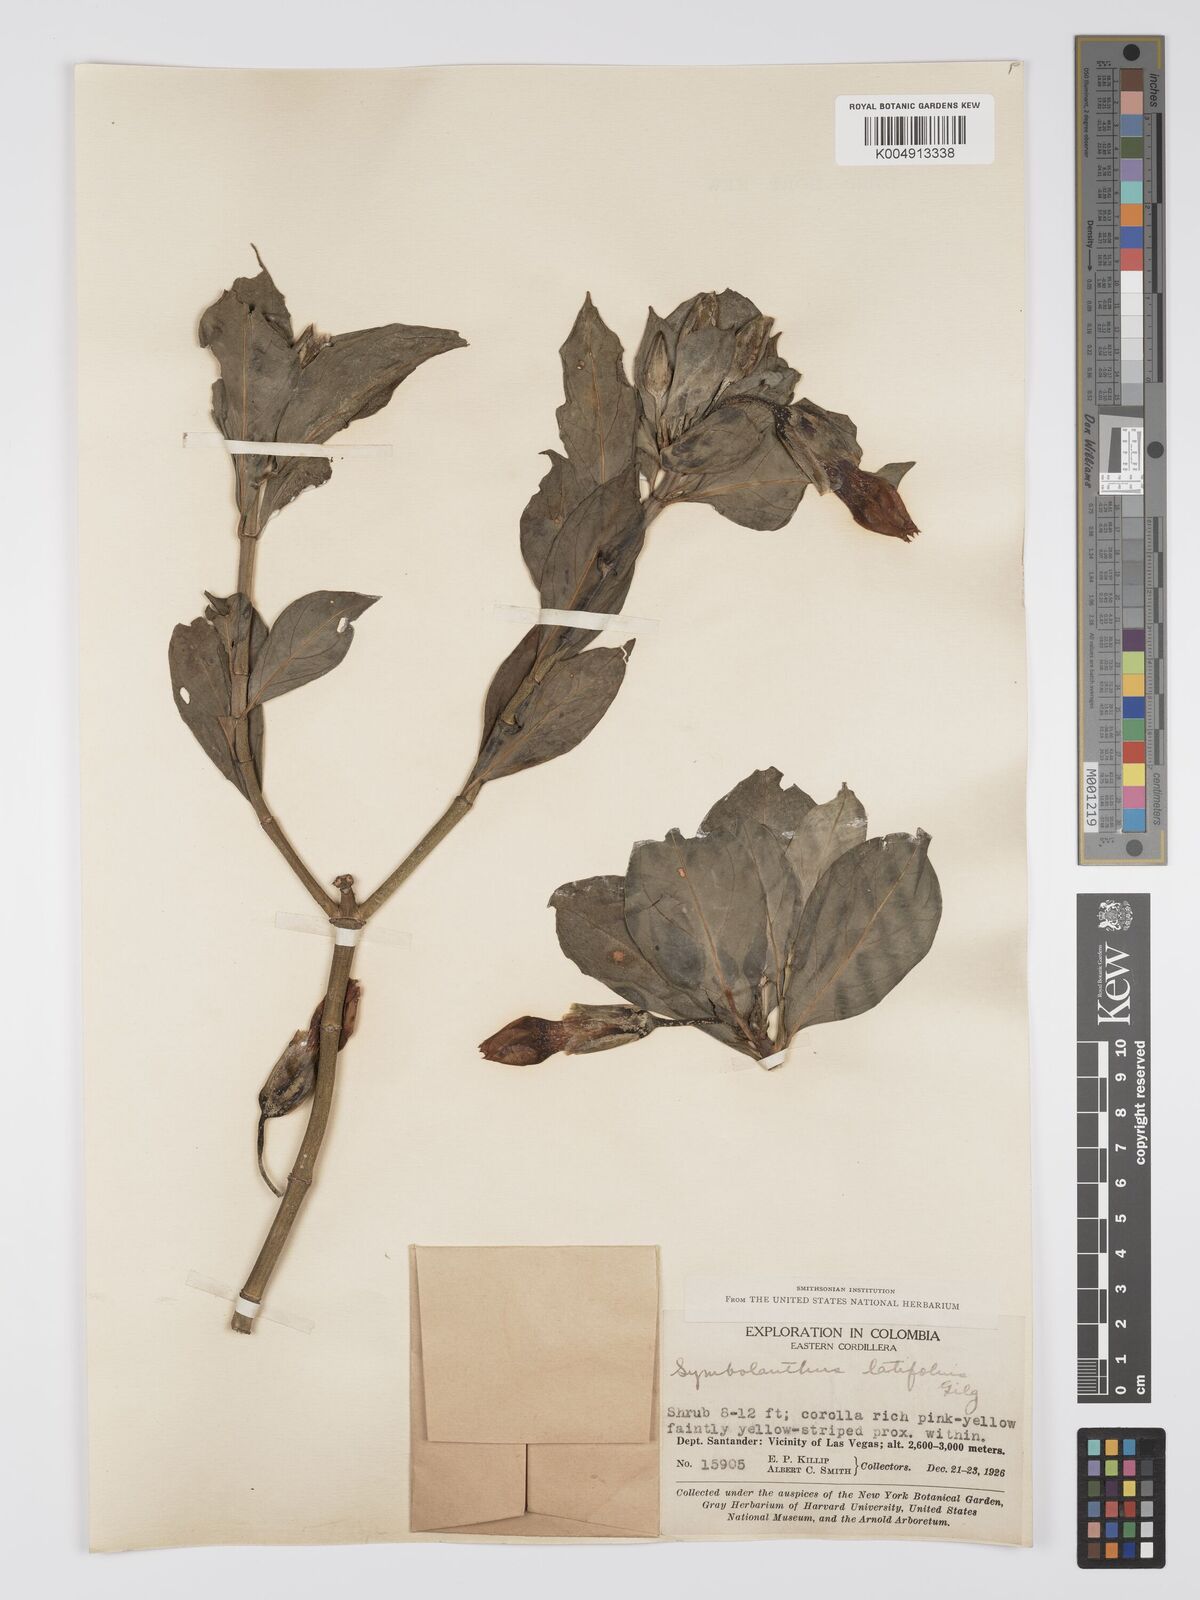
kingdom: Plantae
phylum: Tracheophyta
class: Magnoliopsida
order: Gentianales
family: Gentianaceae
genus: Symbolanthus
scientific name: Symbolanthus latifolius
